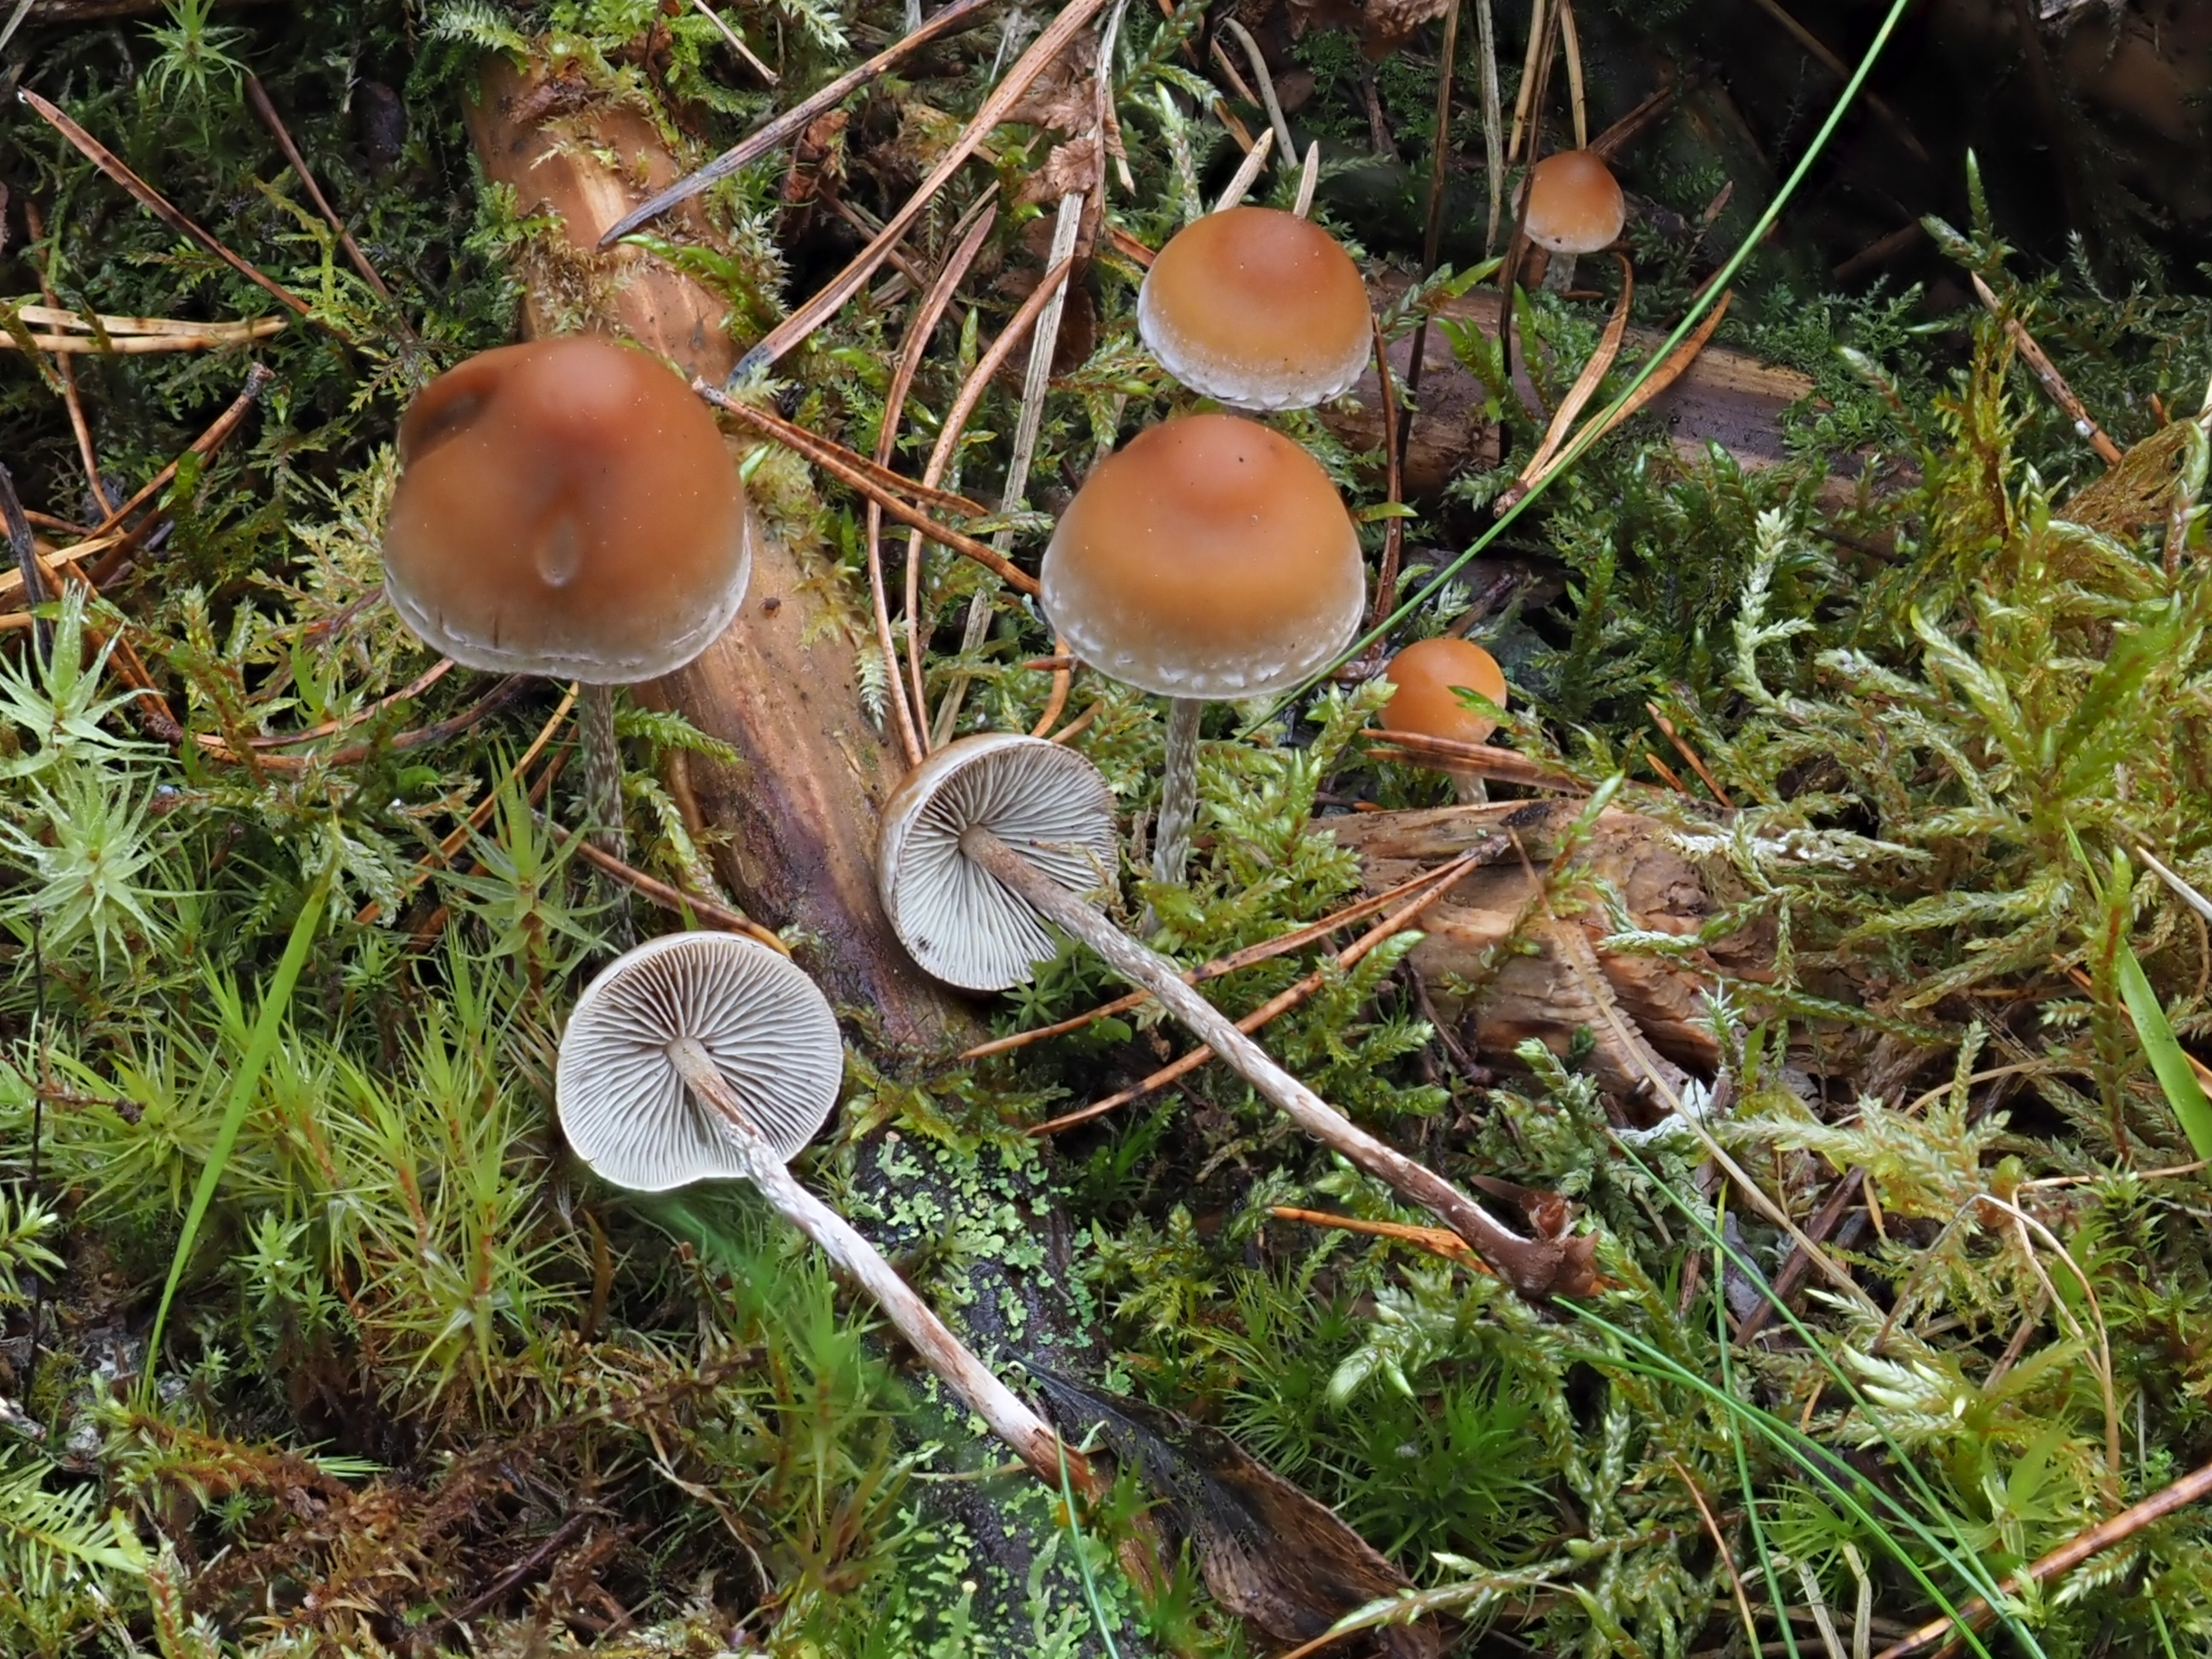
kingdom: Fungi
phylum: Basidiomycota
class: Agaricomycetes
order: Agaricales
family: Strophariaceae
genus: Hypholoma
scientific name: Hypholoma marginatum
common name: Snakeskin brownie
